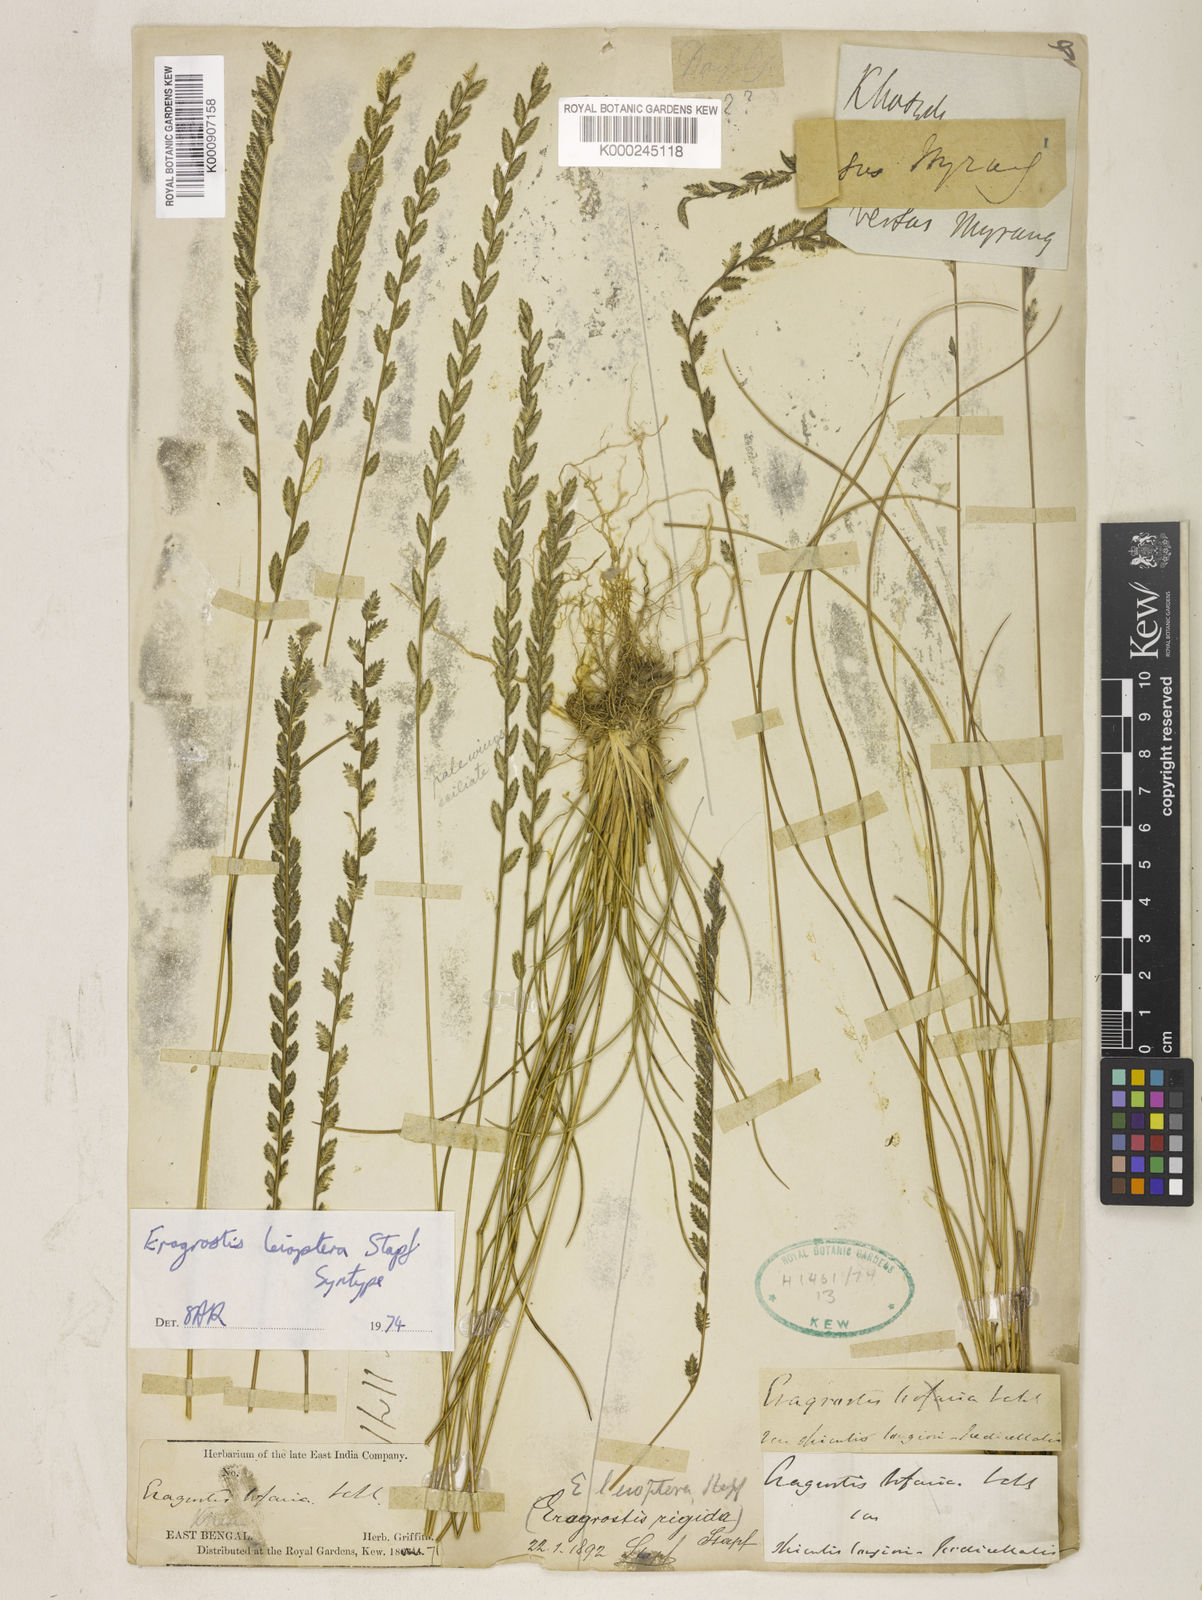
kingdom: Plantae
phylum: Tracheophyta
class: Liliopsida
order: Poales
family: Poaceae
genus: Eragrostiella
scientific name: Eragrostiella leioptera
